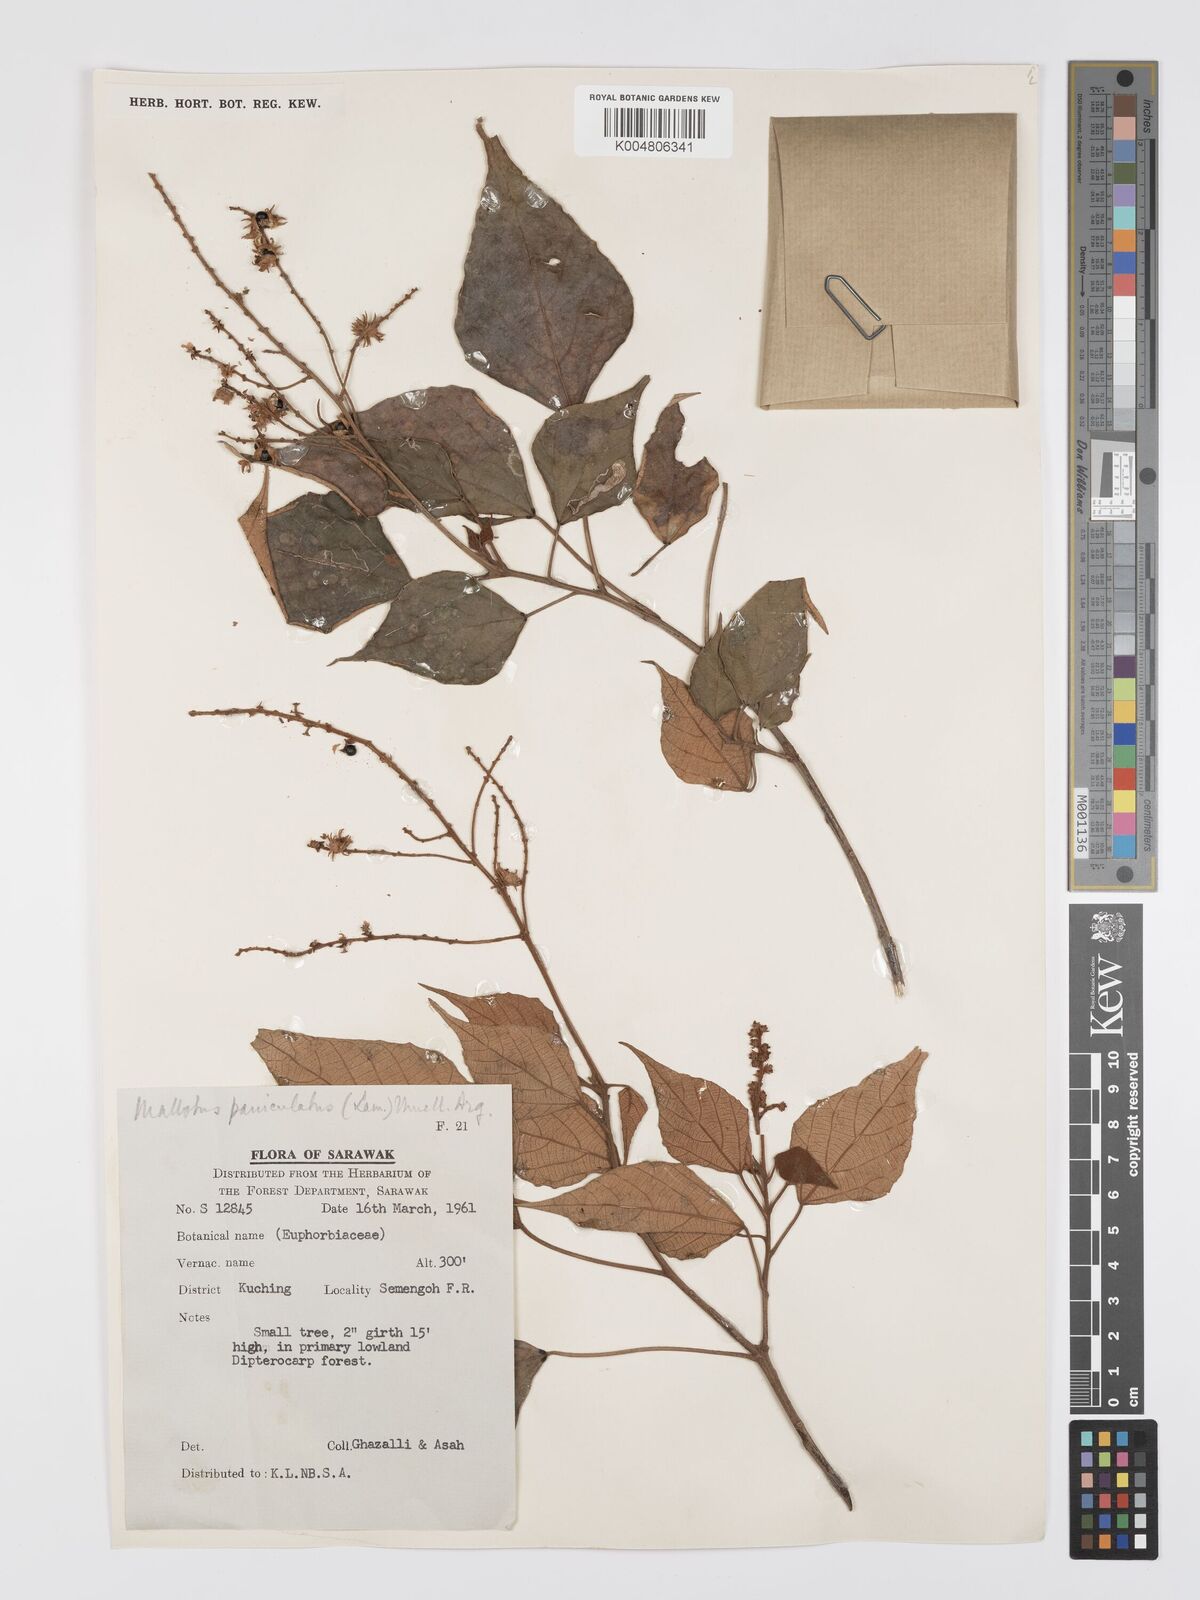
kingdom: Plantae
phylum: Tracheophyta
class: Magnoliopsida
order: Malpighiales
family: Euphorbiaceae
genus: Mallotus
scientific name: Mallotus paniculatus
